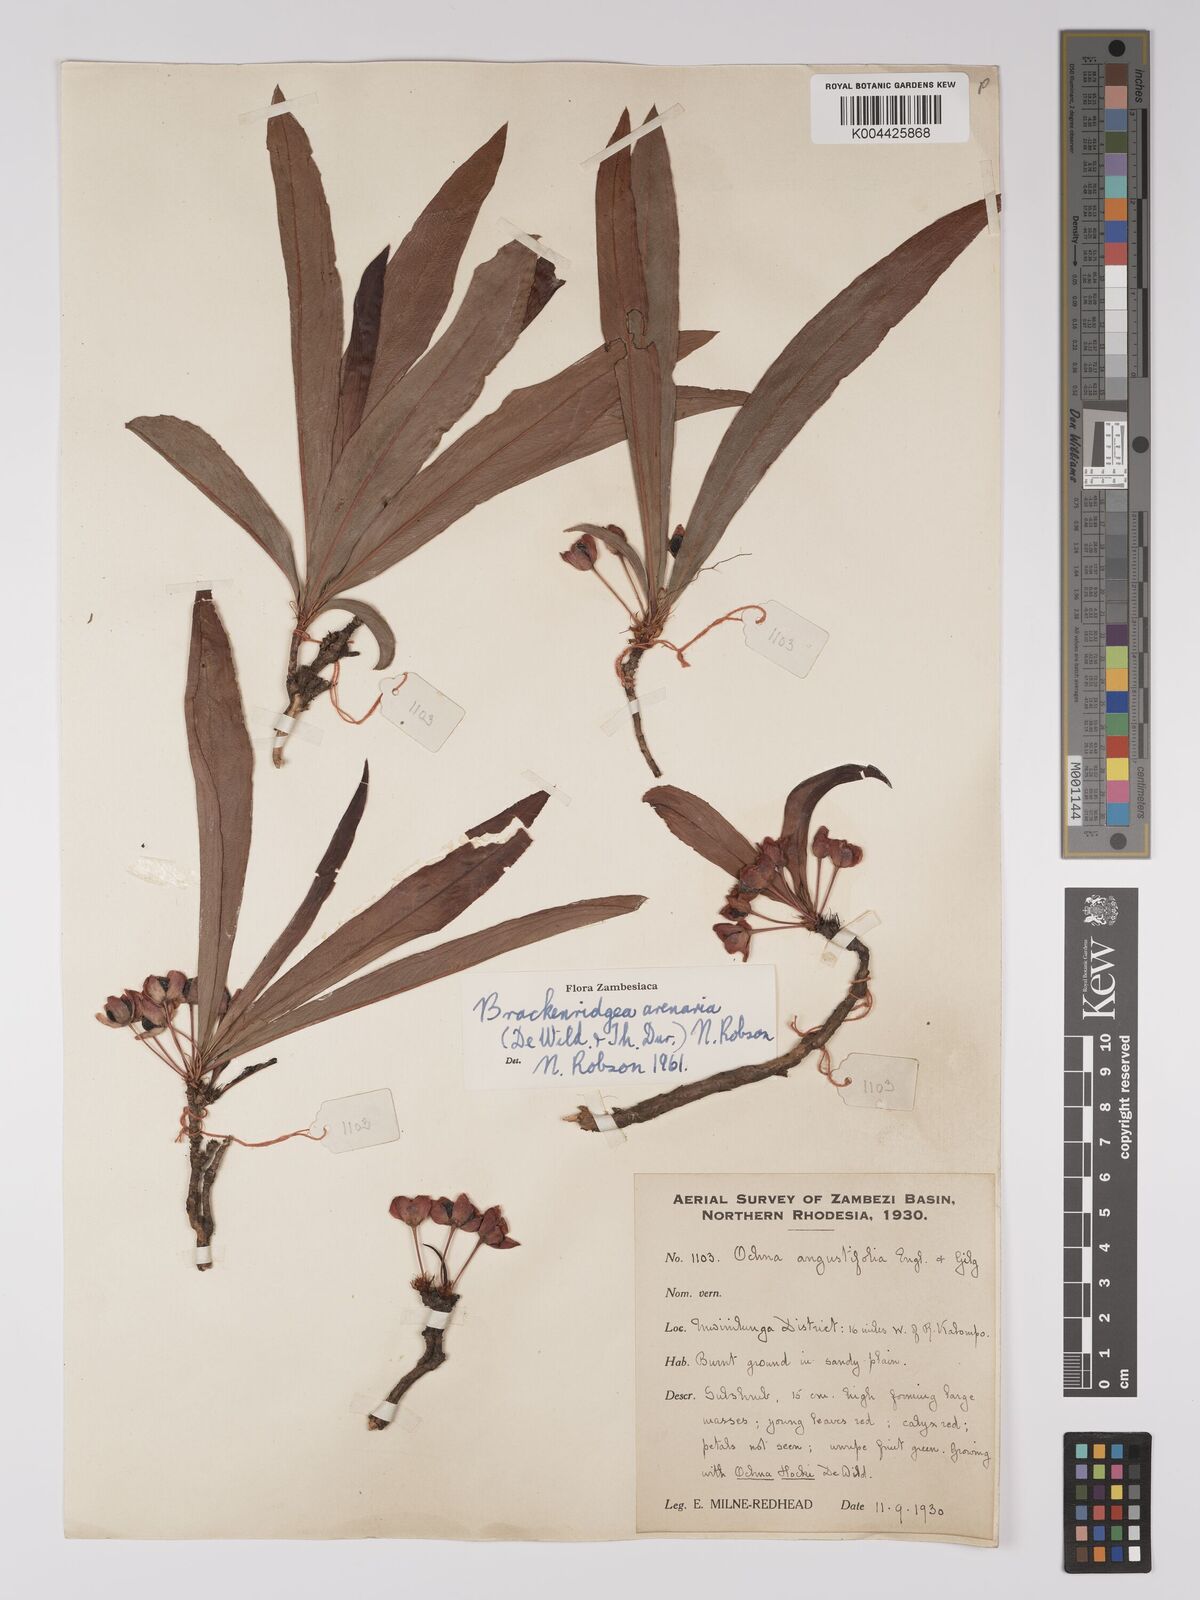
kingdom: Plantae
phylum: Tracheophyta
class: Magnoliopsida
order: Malpighiales
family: Ochnaceae
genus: Ochna
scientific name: Ochna arenaria
